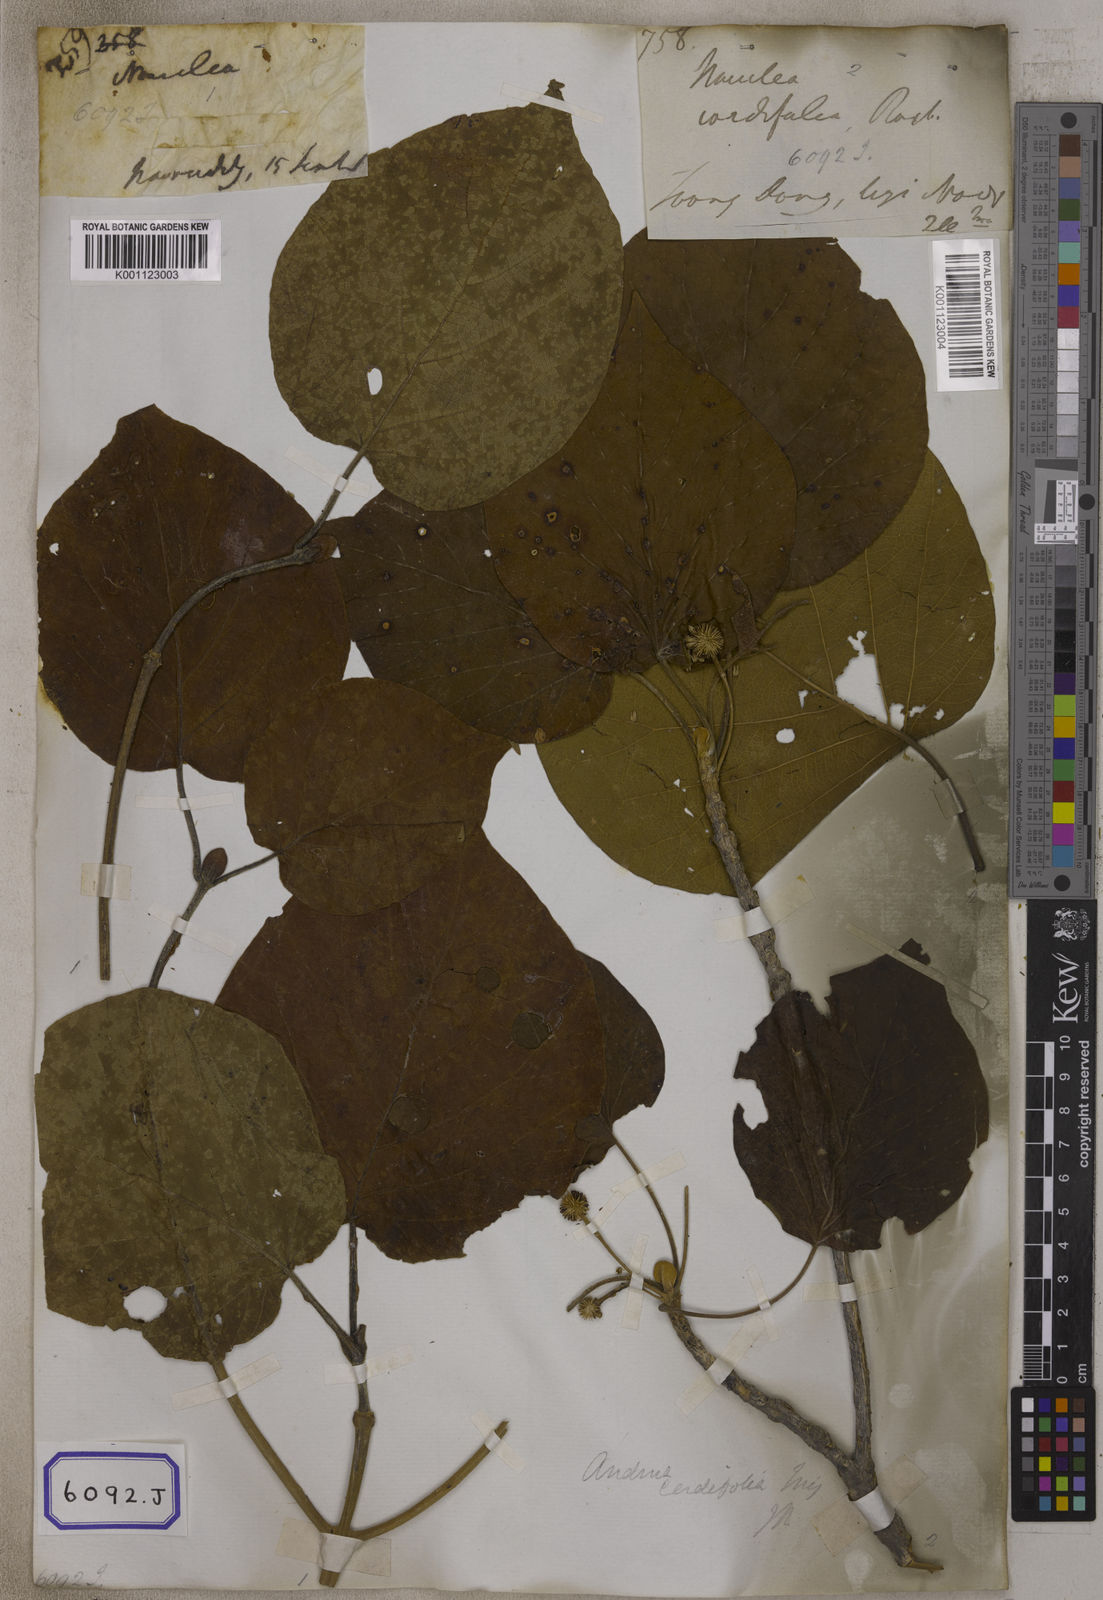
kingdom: Plantae
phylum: Tracheophyta
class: Magnoliopsida
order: Gentianales
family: Rubiaceae
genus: Adina
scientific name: Adina cordifolia
